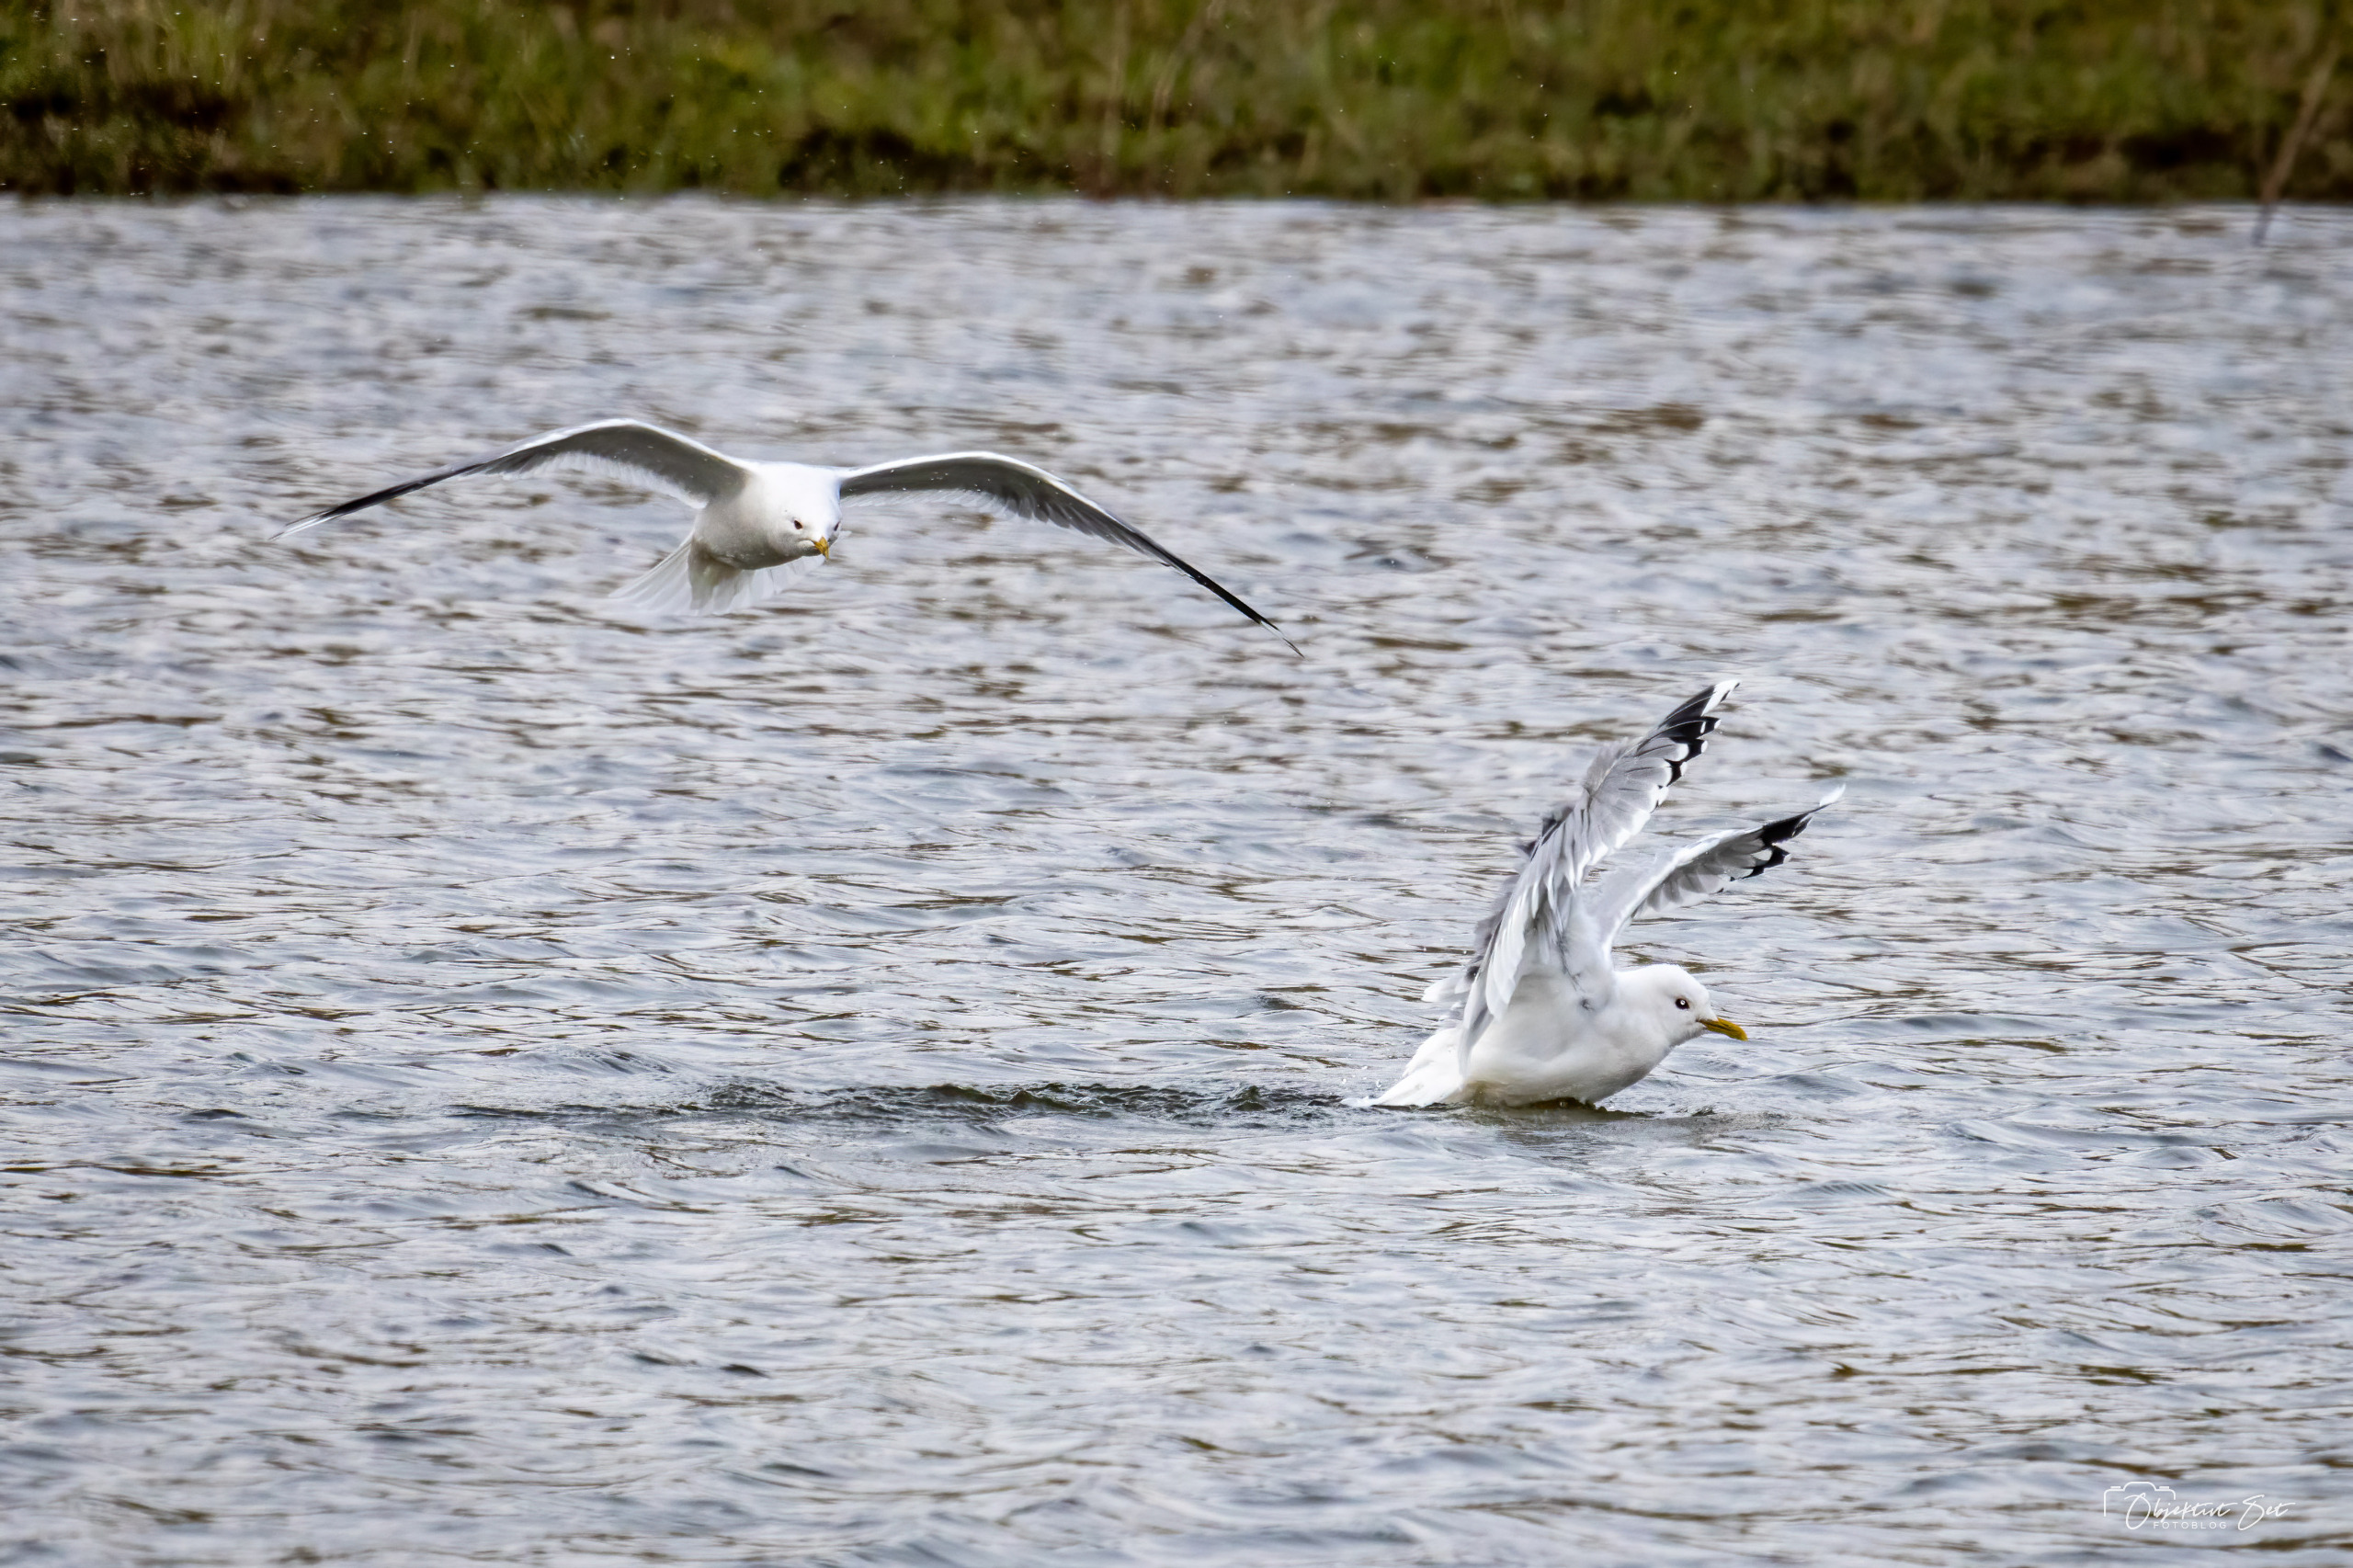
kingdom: Animalia
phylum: Chordata
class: Aves
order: Charadriiformes
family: Laridae
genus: Larus
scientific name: Larus canus
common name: Stormmåge
